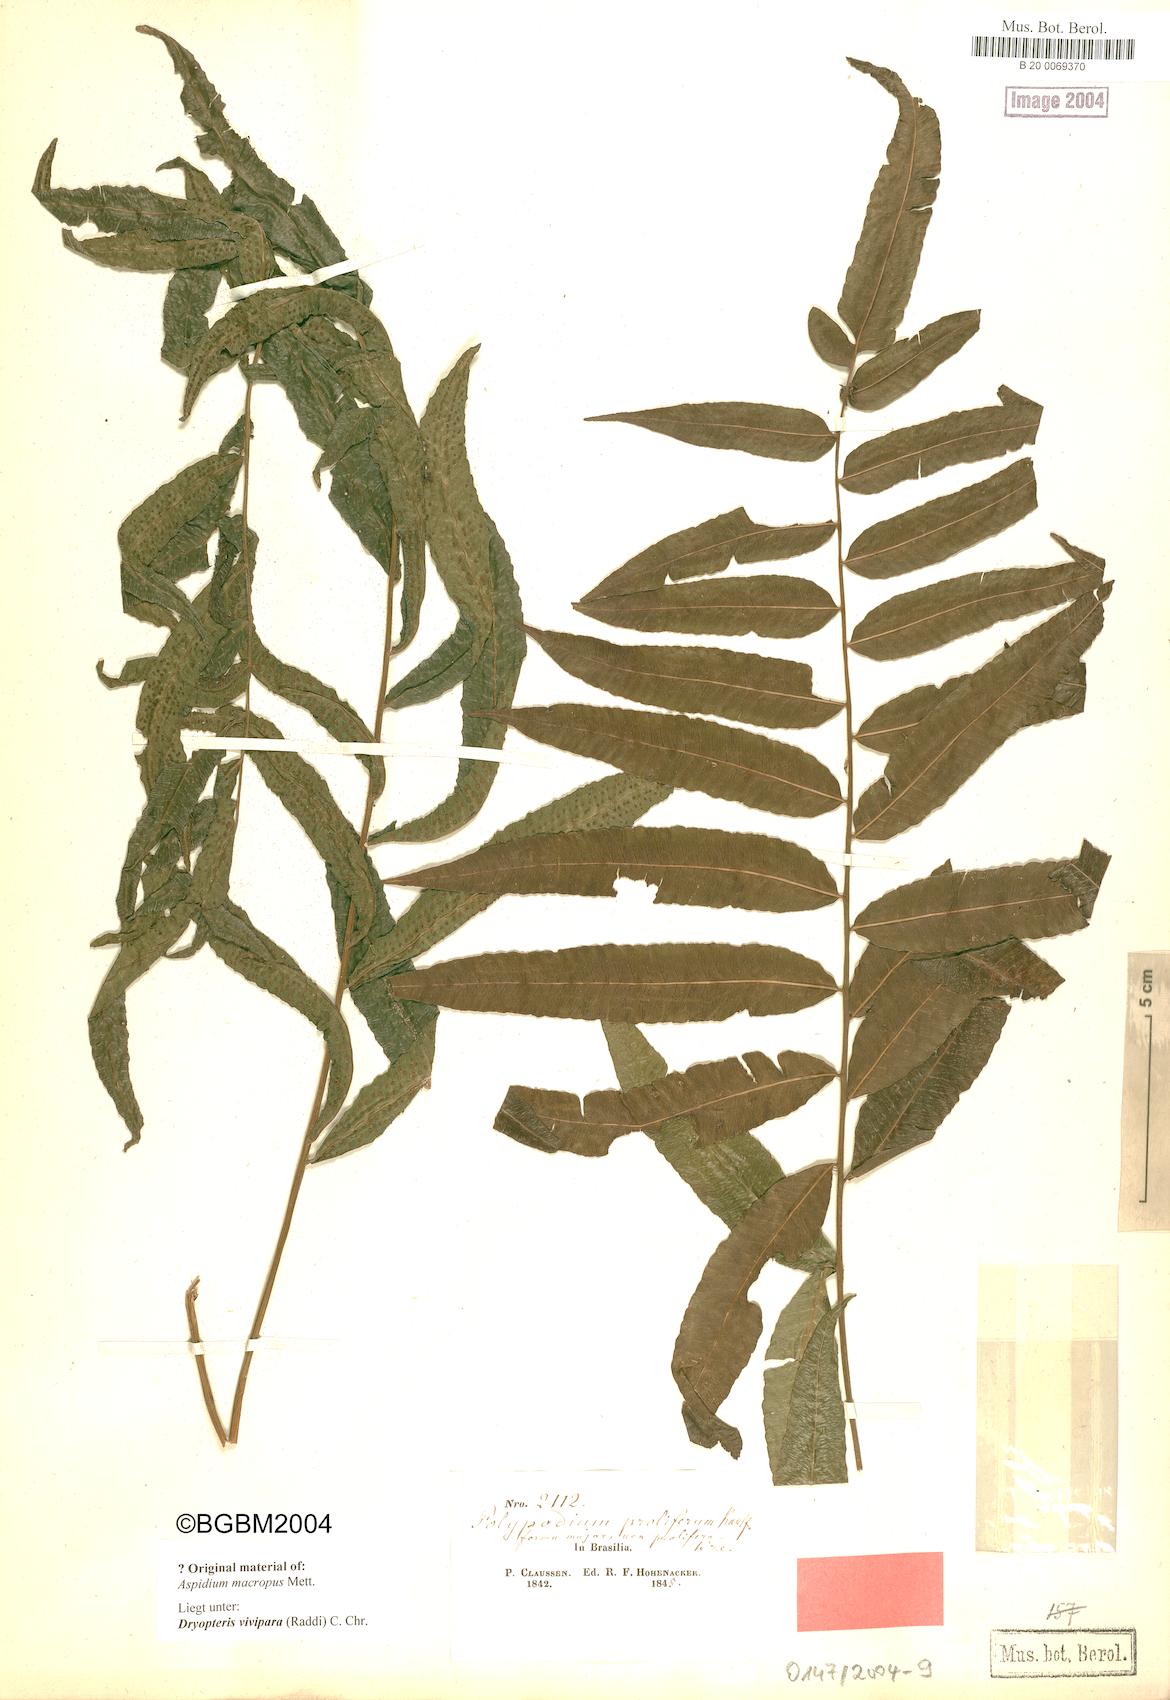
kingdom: Plantae
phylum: Tracheophyta
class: Polypodiopsida
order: Polypodiales
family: Thelypteridaceae
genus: Goniopteris
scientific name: Goniopteris vivipara
